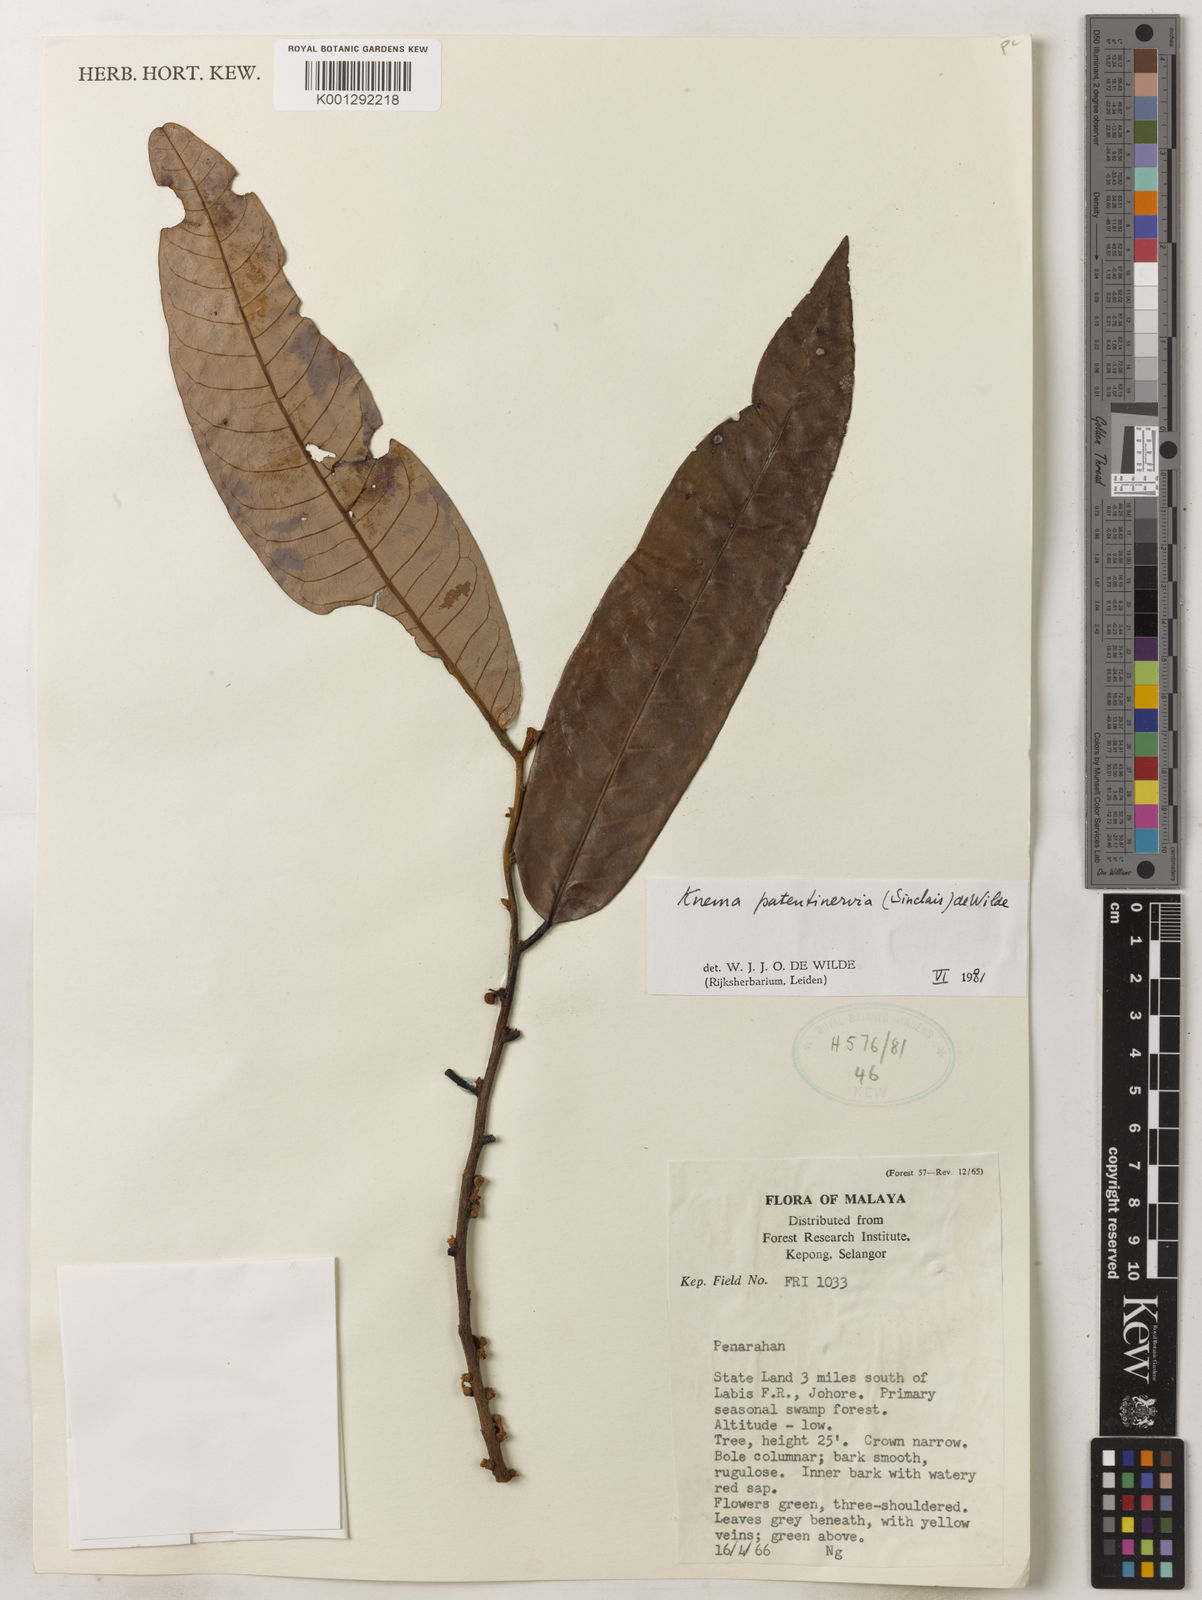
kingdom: Plantae
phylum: Tracheophyta
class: Magnoliopsida
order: Magnoliales
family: Myristicaceae
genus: Knema
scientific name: Knema patentinervia
